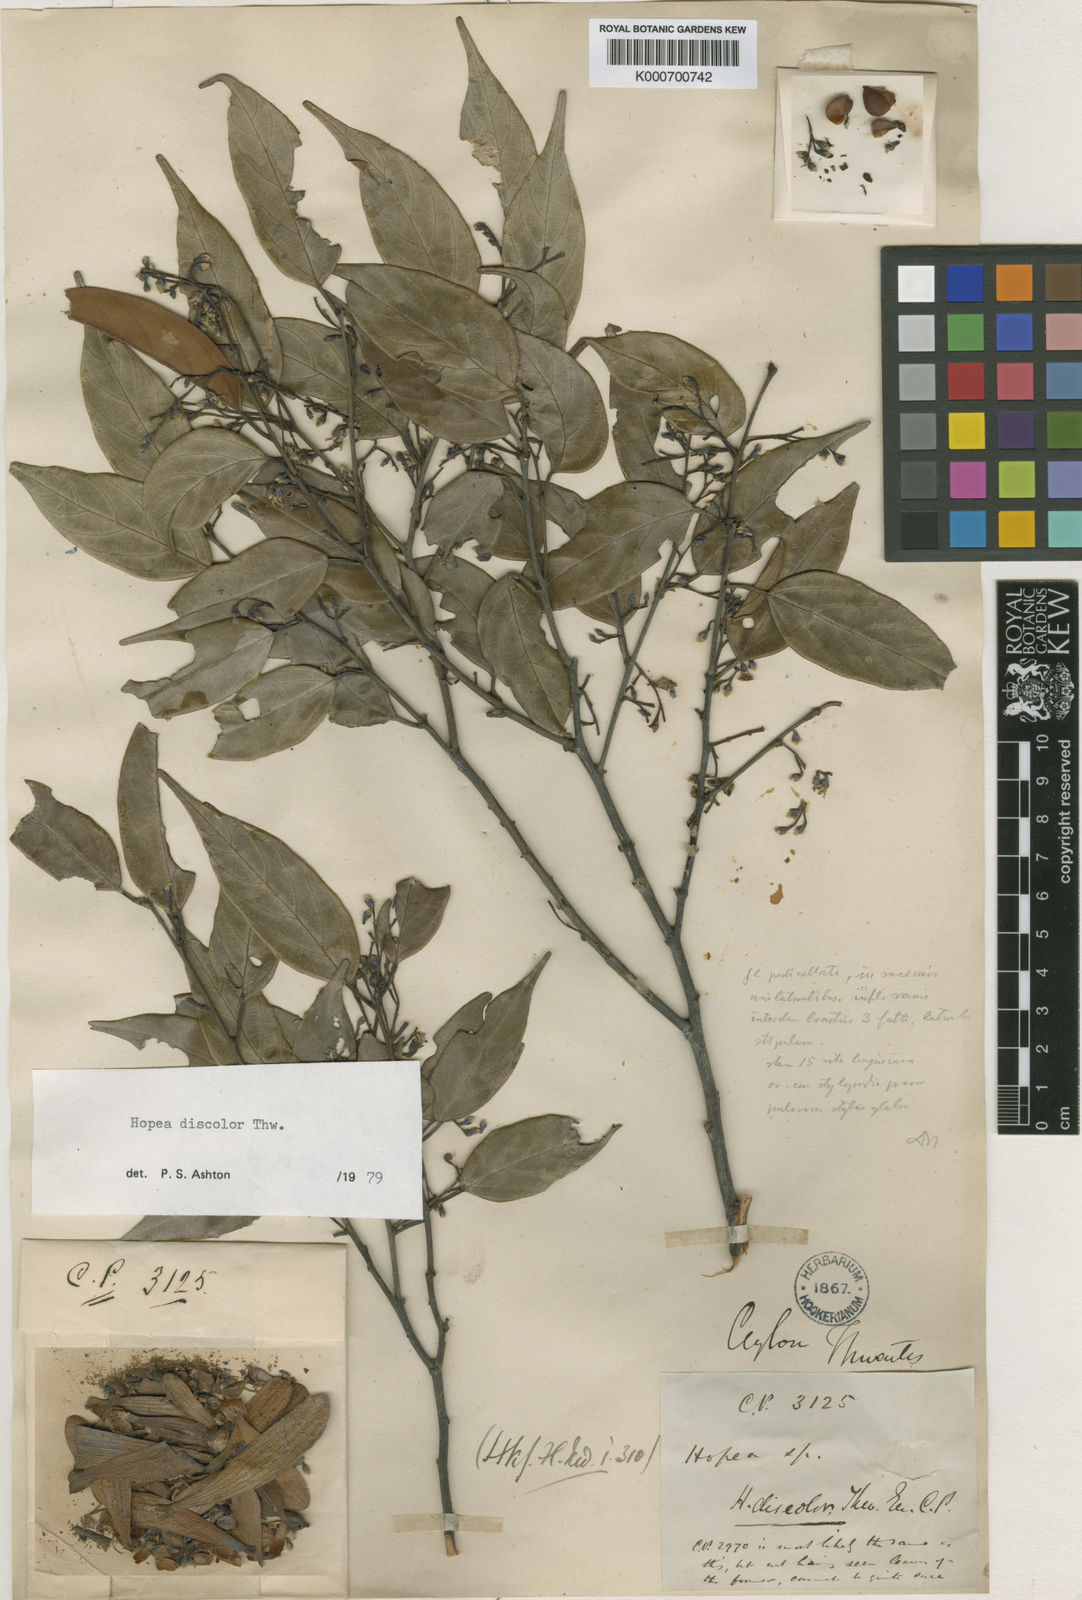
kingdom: Plantae
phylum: Tracheophyta
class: Magnoliopsida
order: Malvales
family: Dipterocarpaceae
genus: Hopea
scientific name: Hopea discolor
